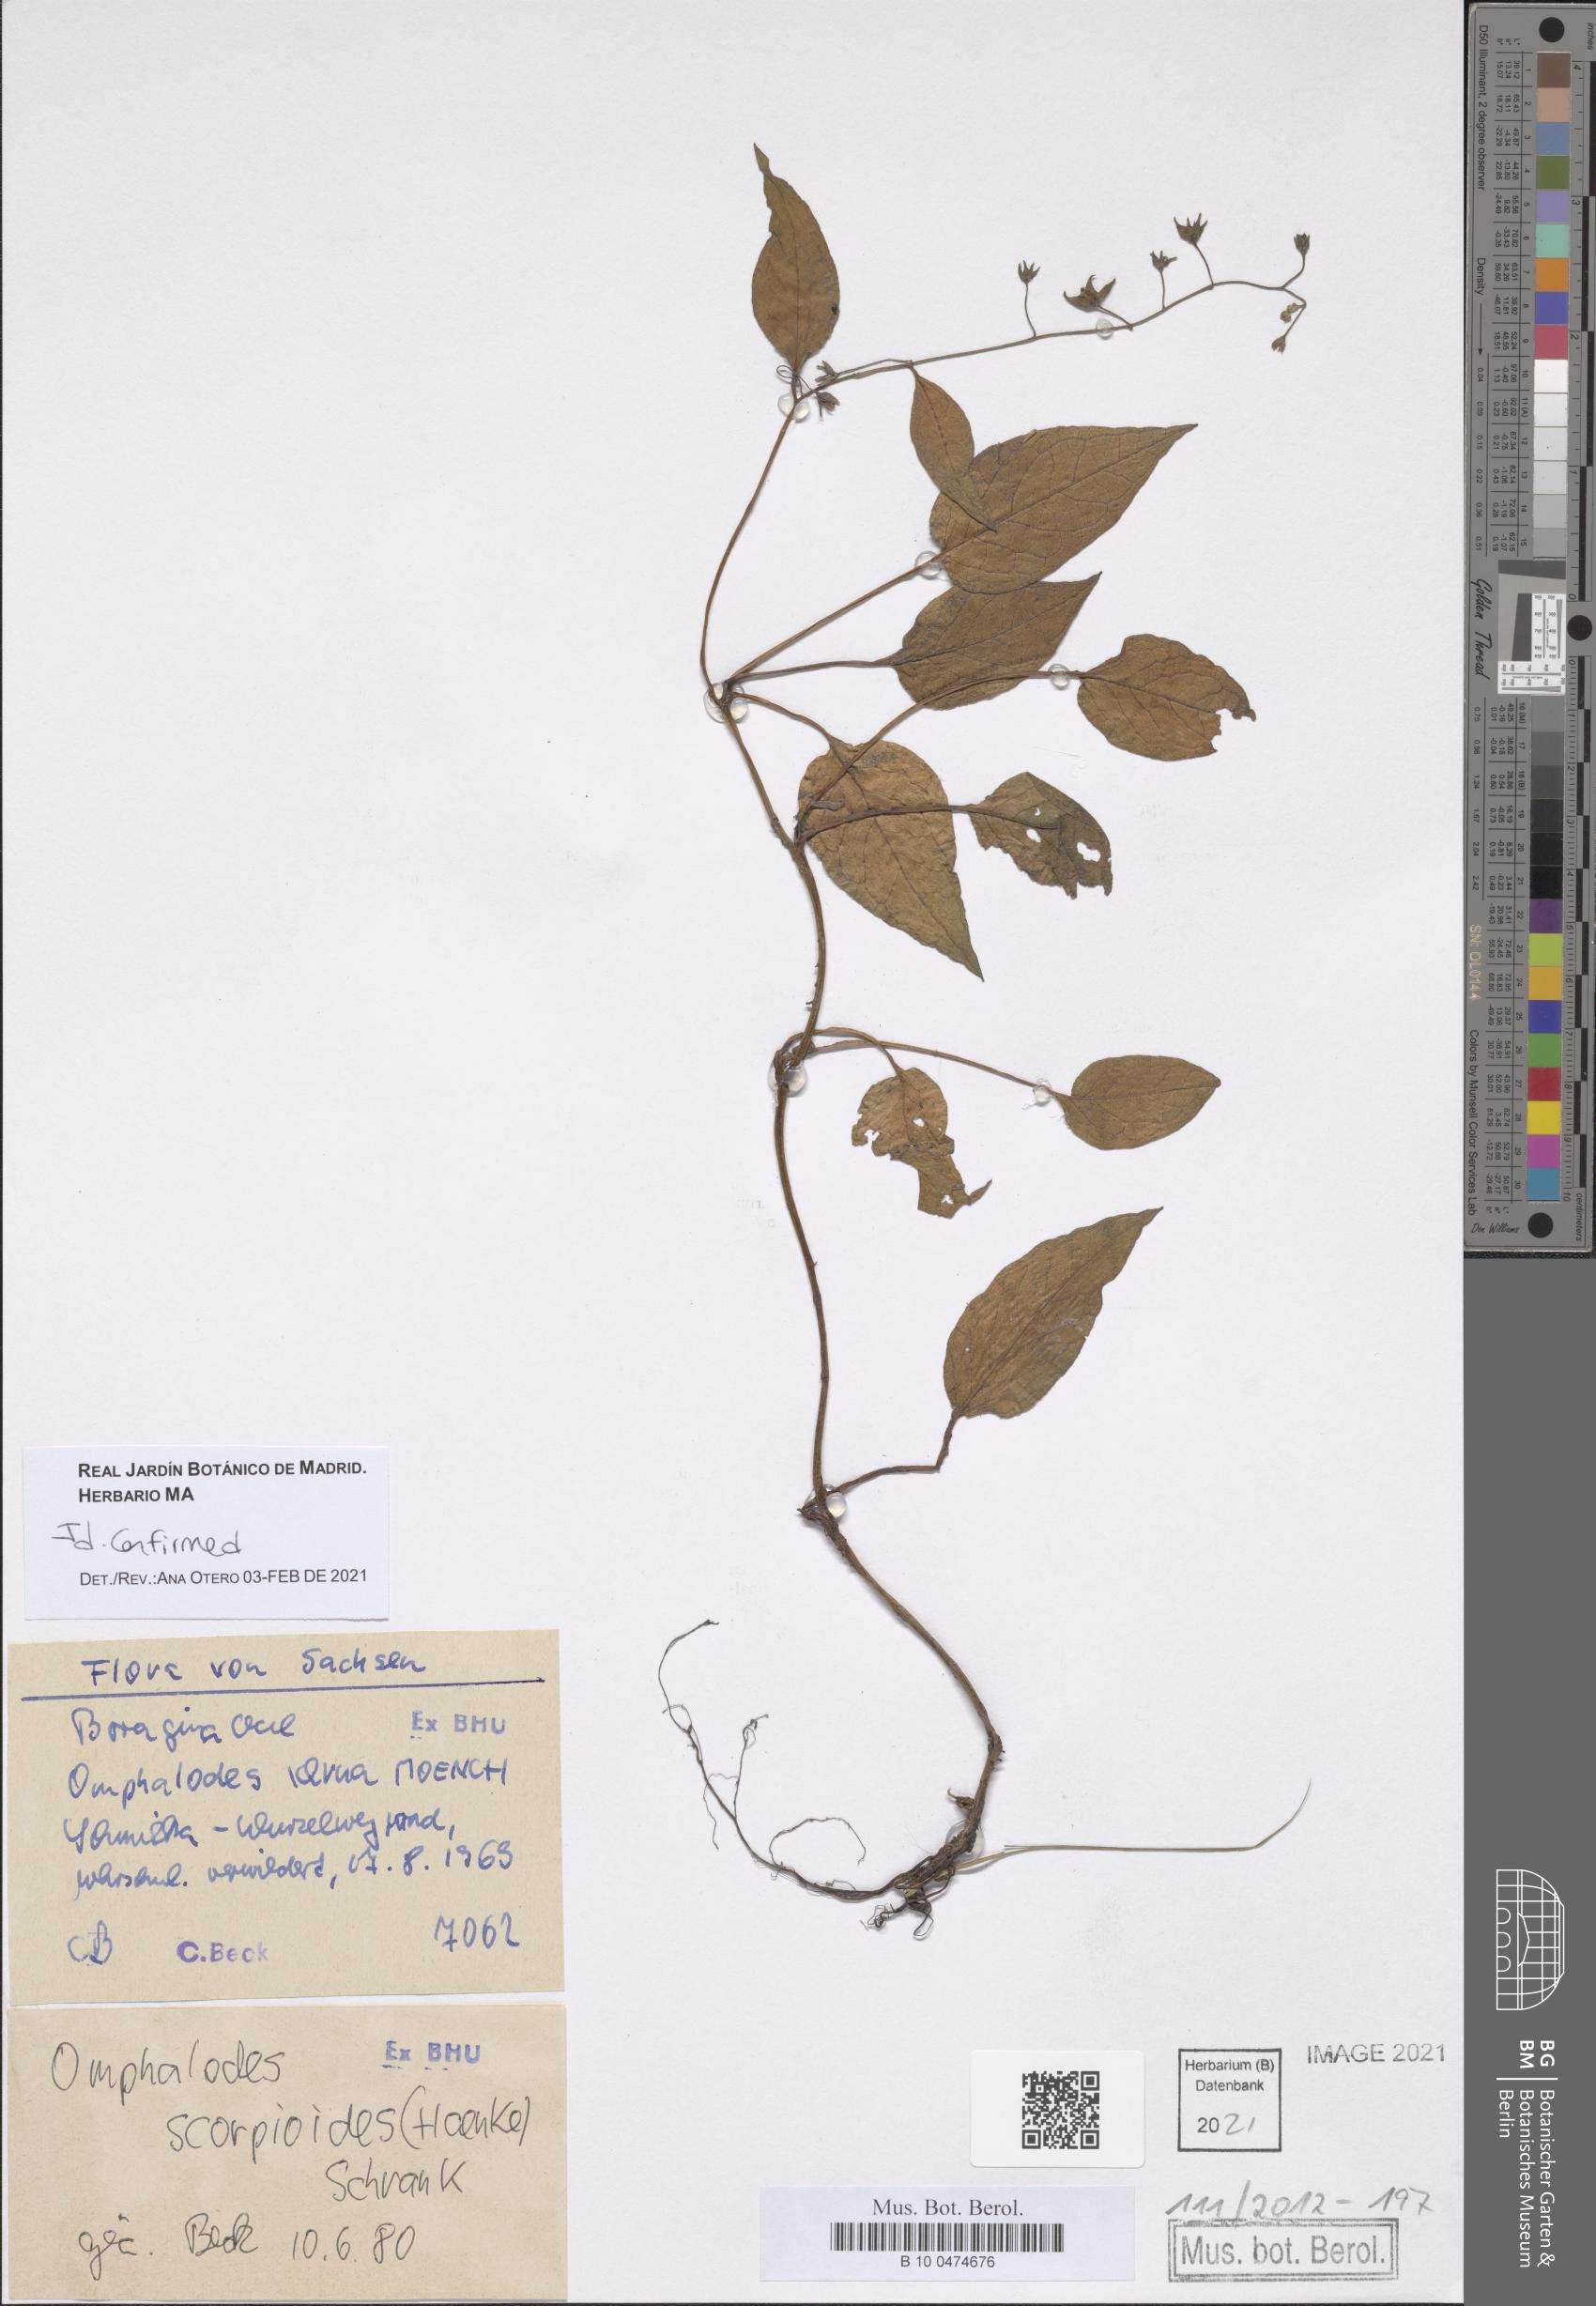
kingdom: Plantae
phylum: Tracheophyta
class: Magnoliopsida
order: Boraginales
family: Boraginaceae
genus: Omphalodes
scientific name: Omphalodes verna
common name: Blue-eyed-mary
